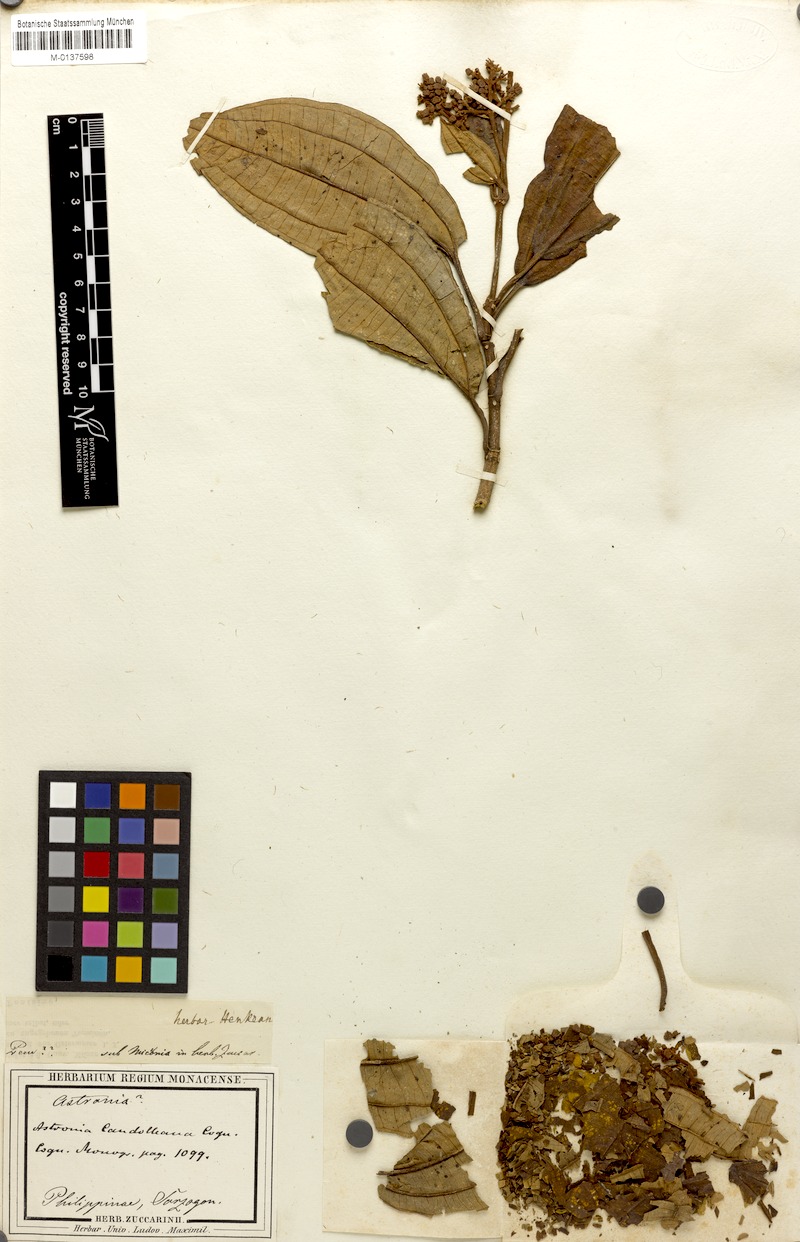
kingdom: Plantae
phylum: Tracheophyta
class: Magnoliopsida
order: Myrtales
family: Melastomataceae
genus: Astronia
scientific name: Astronia candolleana
